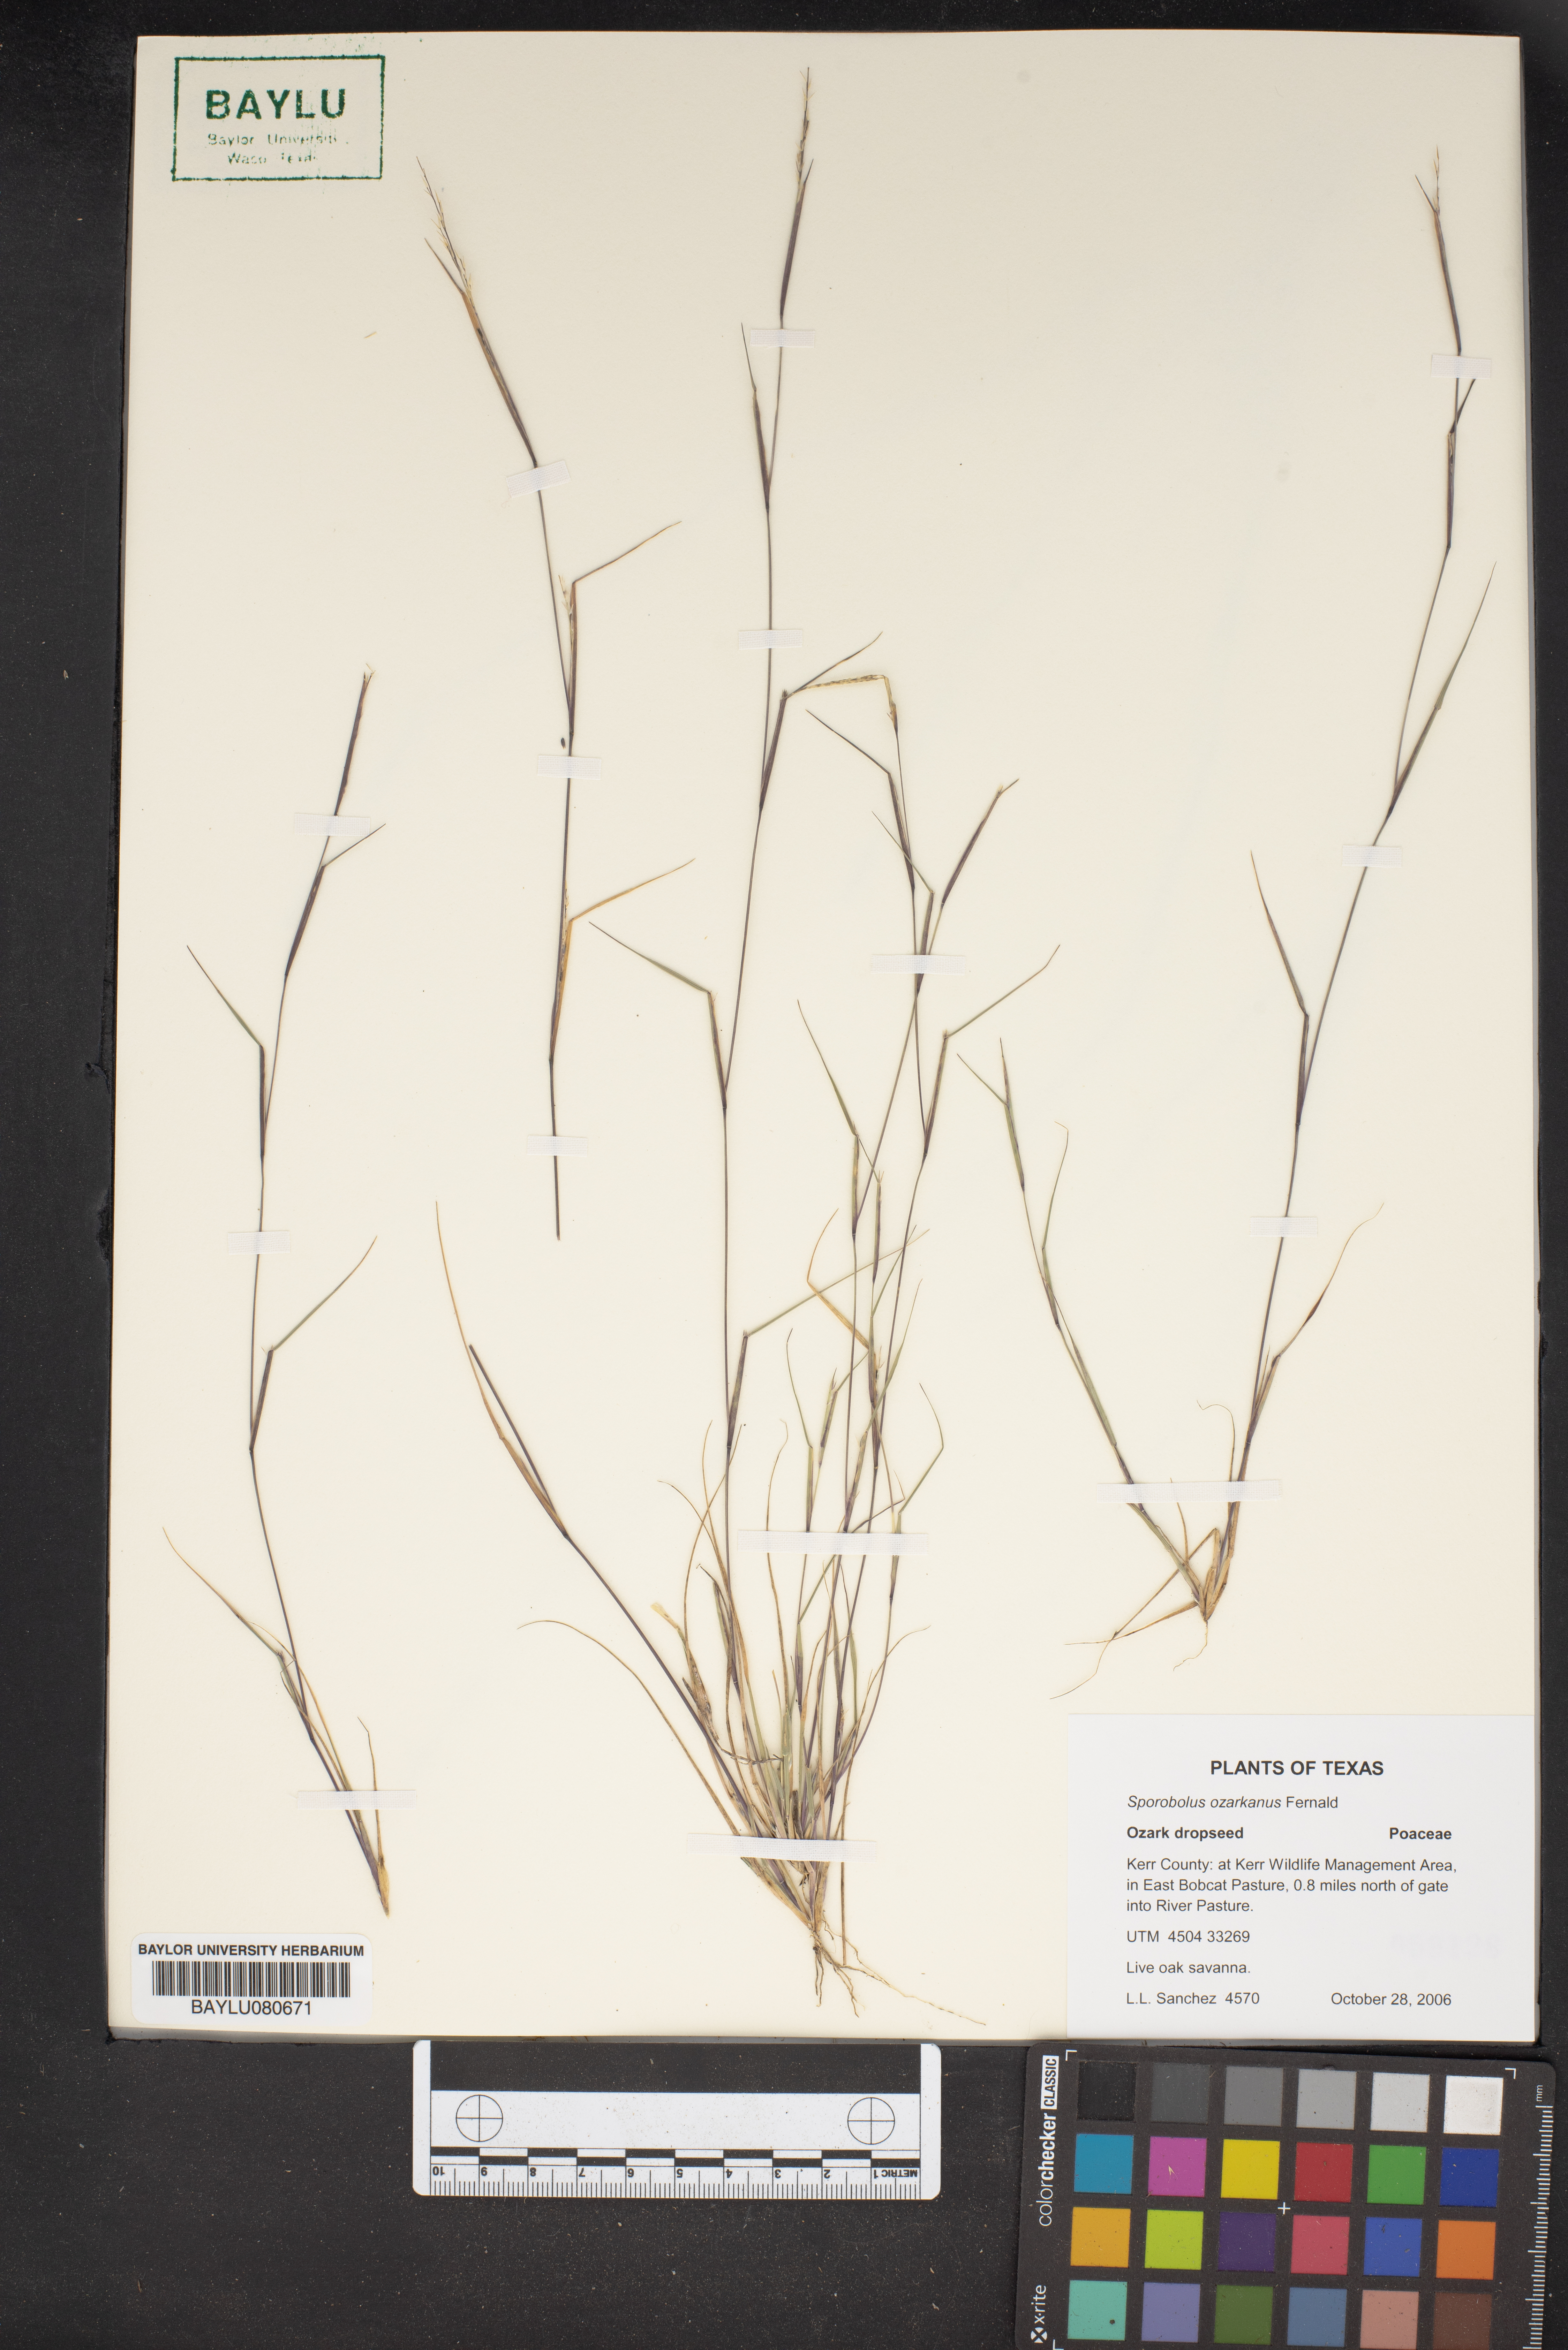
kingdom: Plantae
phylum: Tracheophyta
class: Liliopsida
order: Poales
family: Poaceae
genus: Sporobolus
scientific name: Sporobolus neglectus
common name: Annual dropseed
